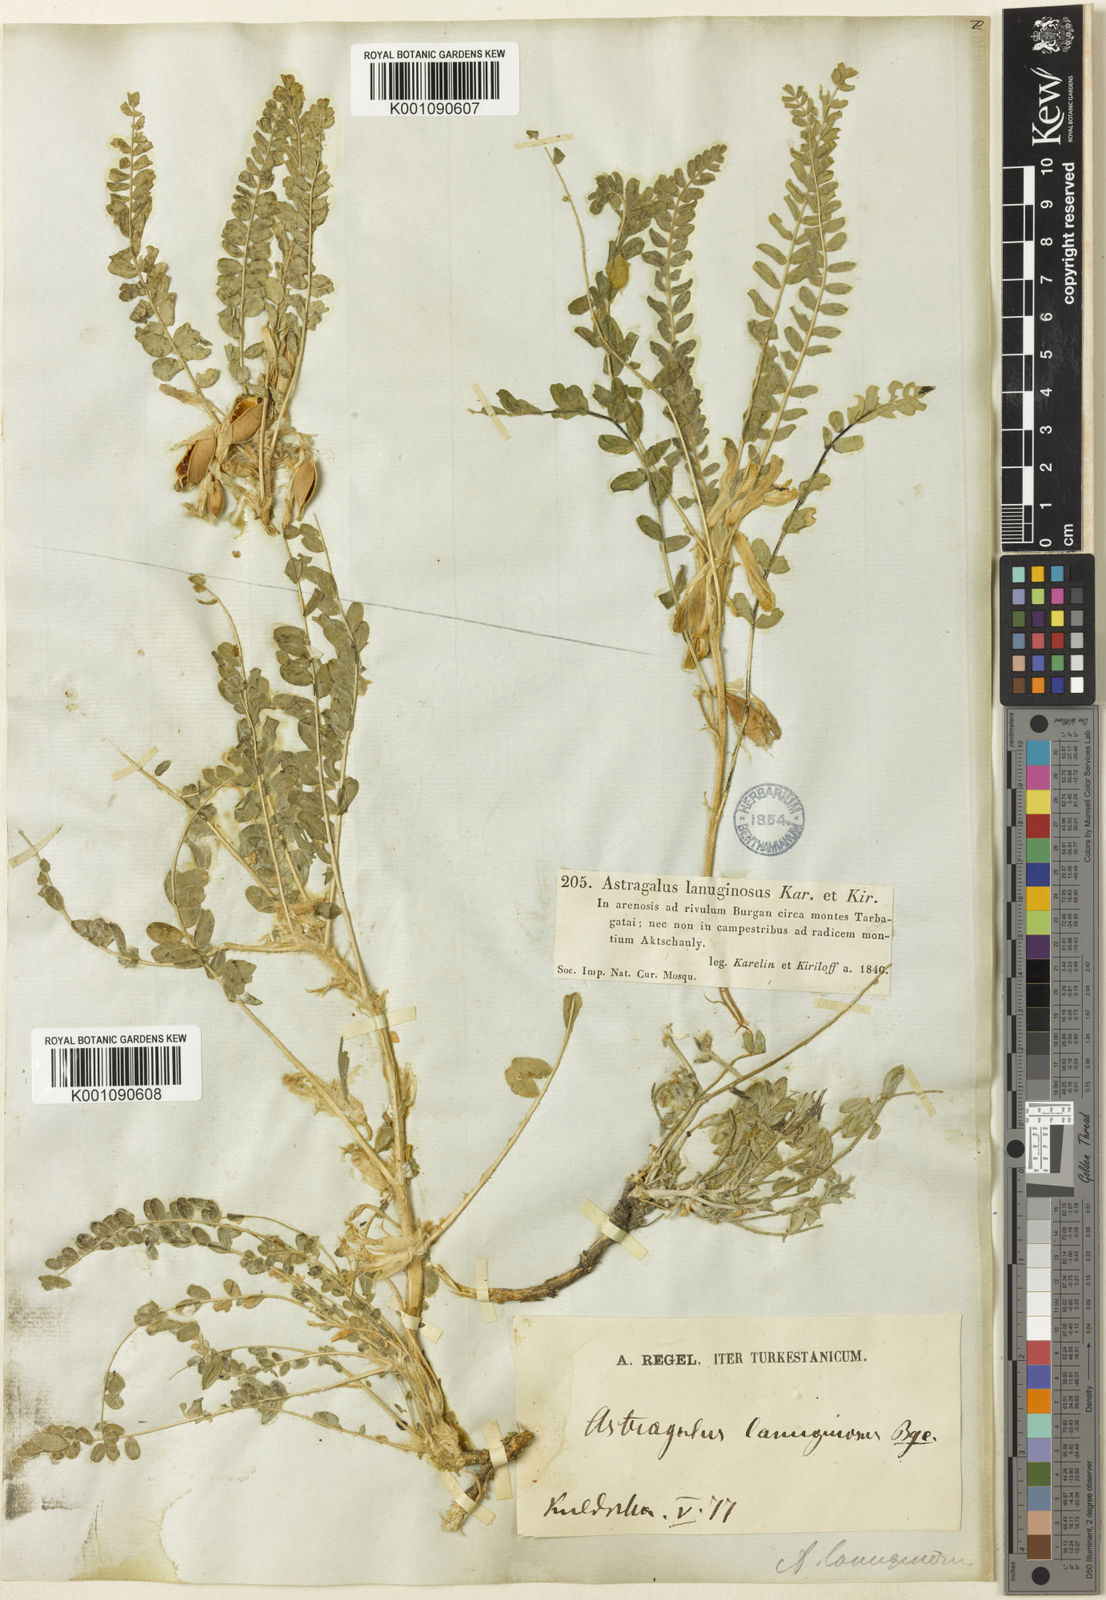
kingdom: Plantae
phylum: Tracheophyta
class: Magnoliopsida
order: Fabales
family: Fabaceae
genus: Astragalus
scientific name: Astragalus
